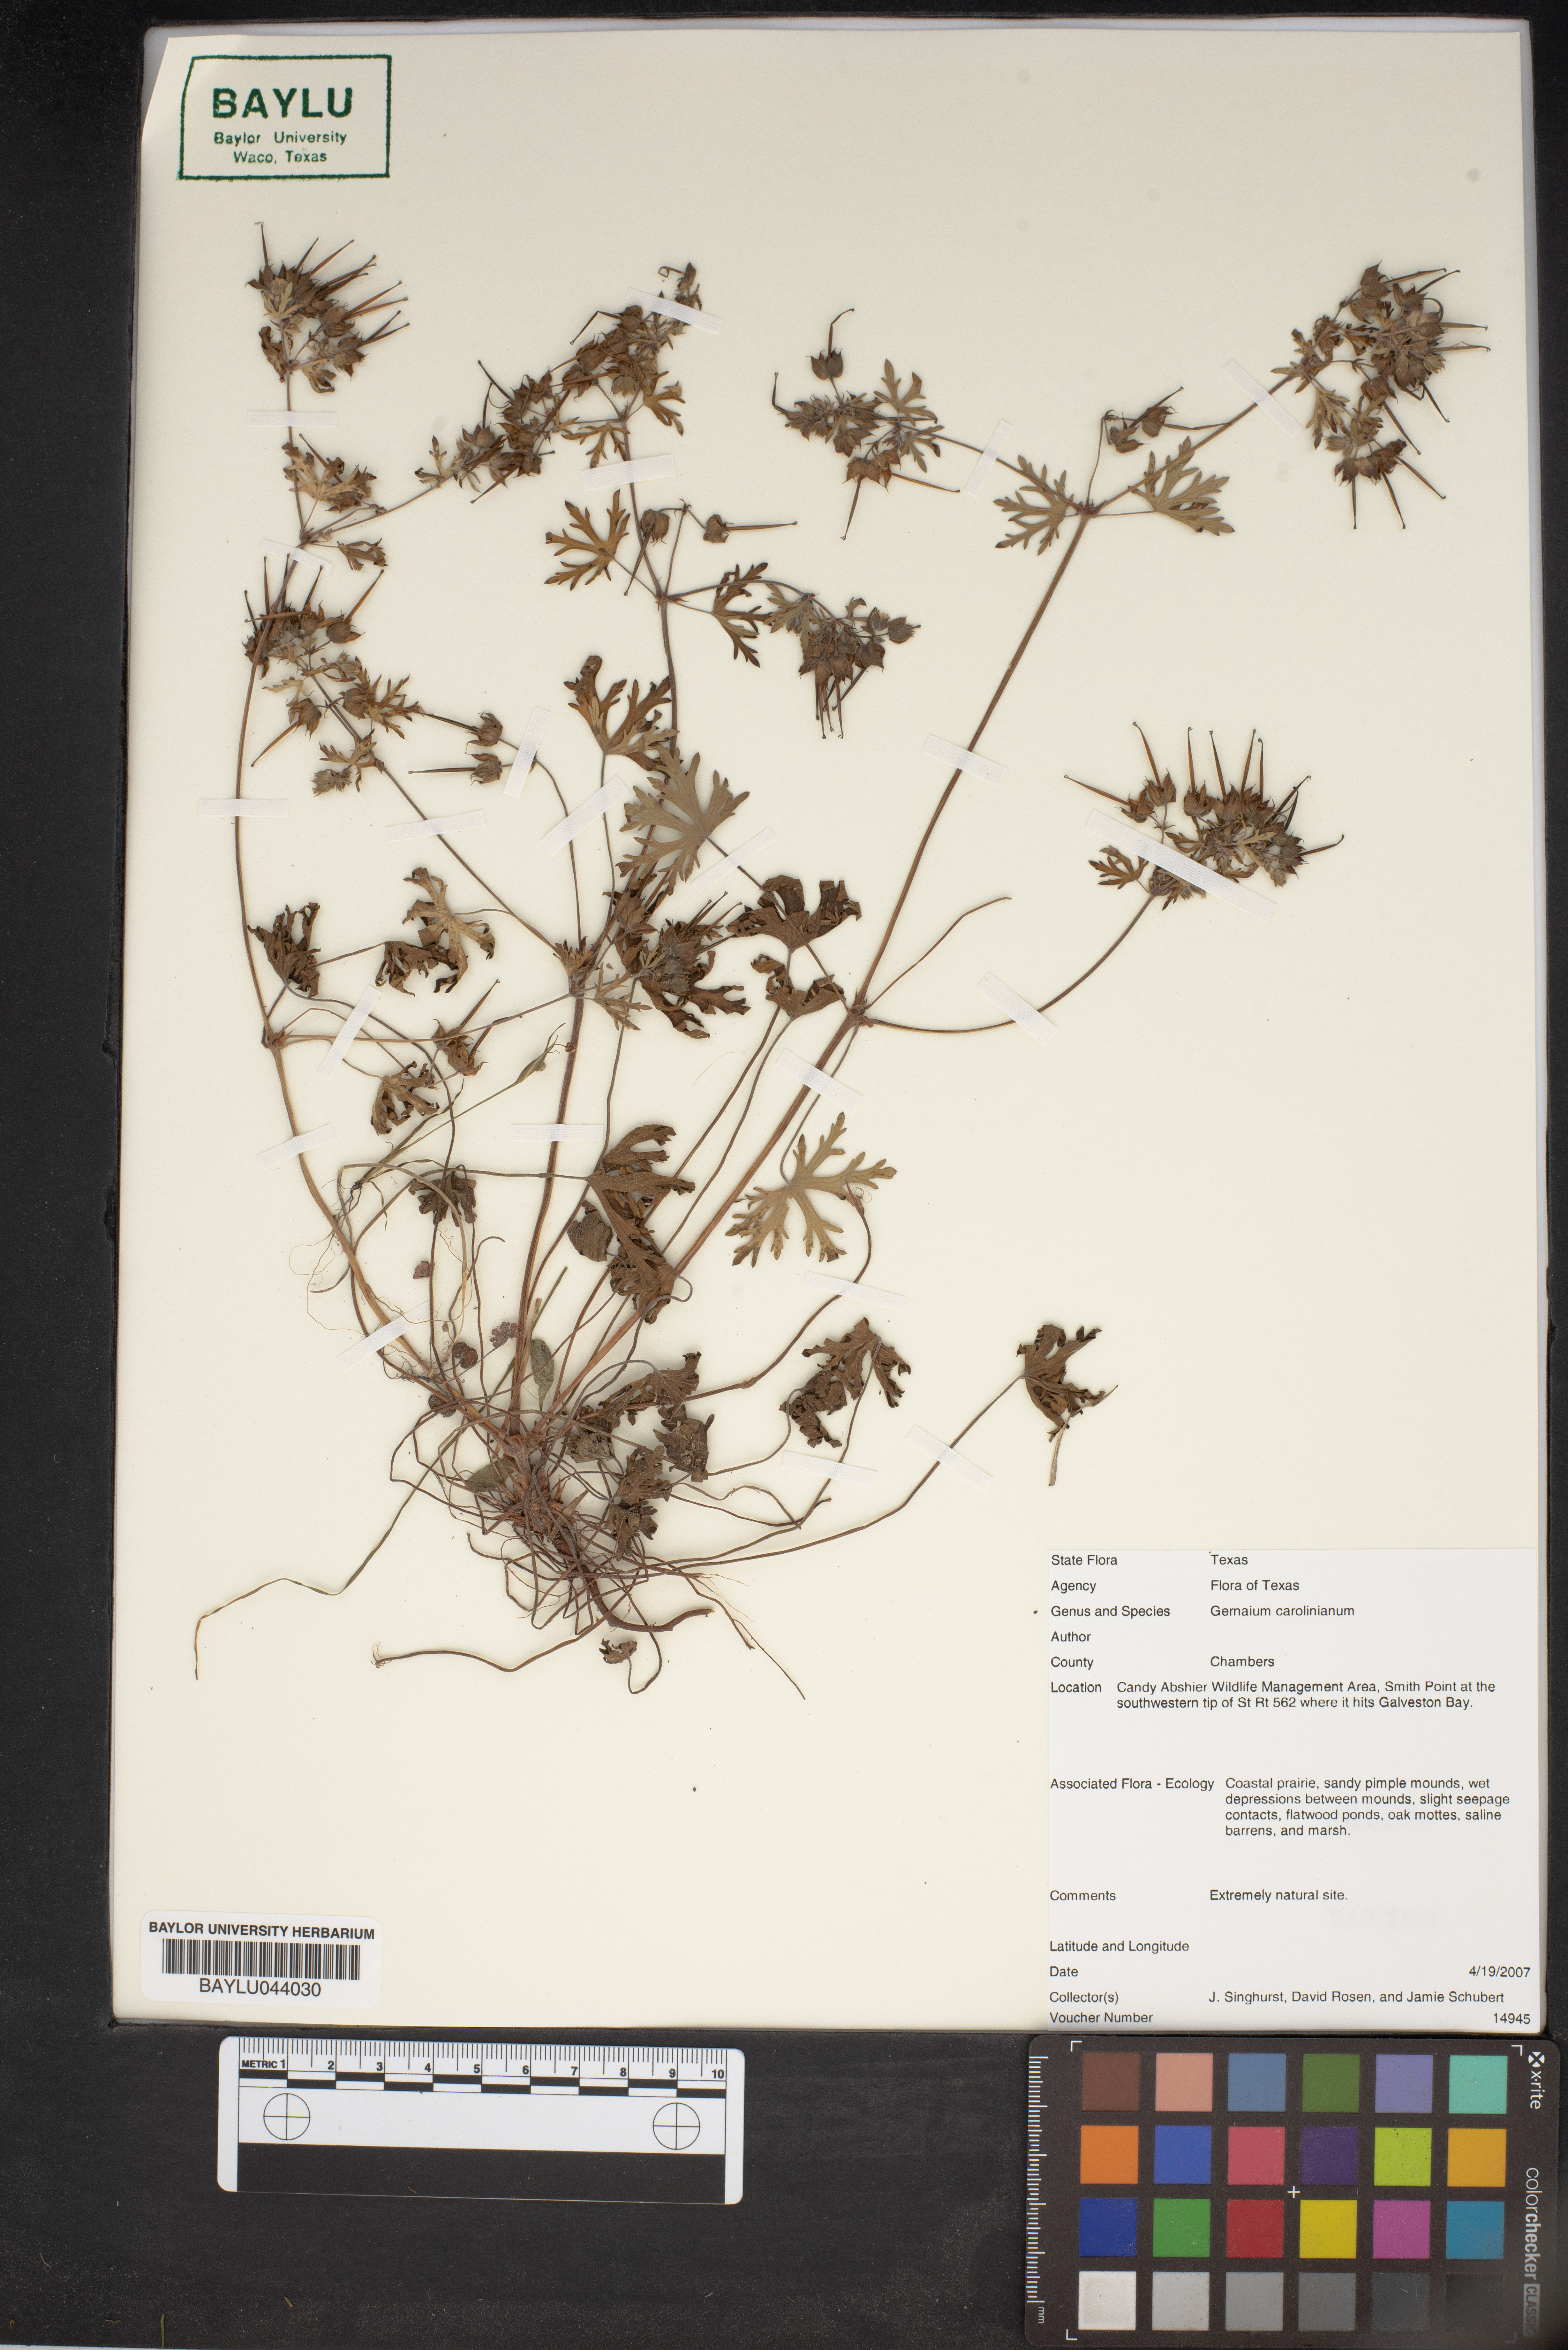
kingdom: Plantae
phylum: Tracheophyta
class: Magnoliopsida
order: Geraniales
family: Geraniaceae
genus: Geranium
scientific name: Geranium carolinianum
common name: Carolina crane's-bill
